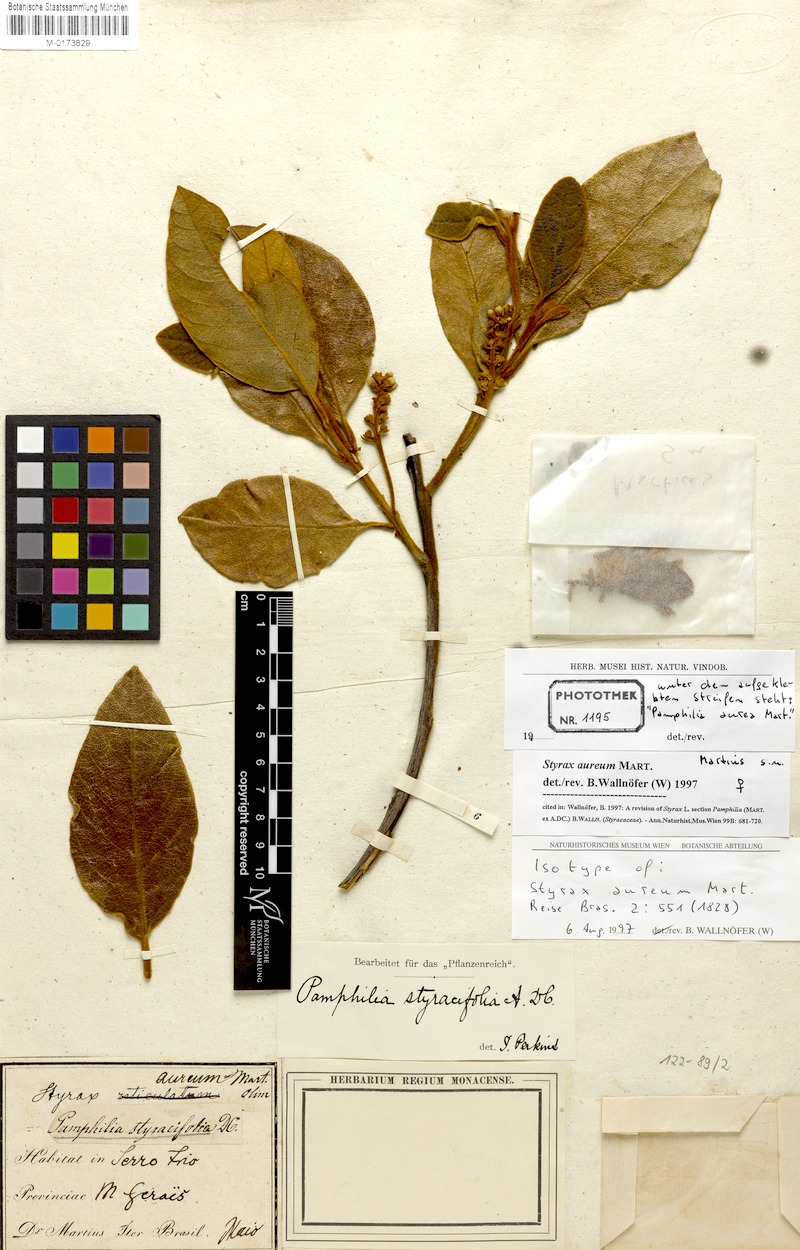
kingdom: Plantae
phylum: Tracheophyta
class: Magnoliopsida
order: Ericales
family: Styracaceae
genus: Styrax
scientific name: Styrax aureus
